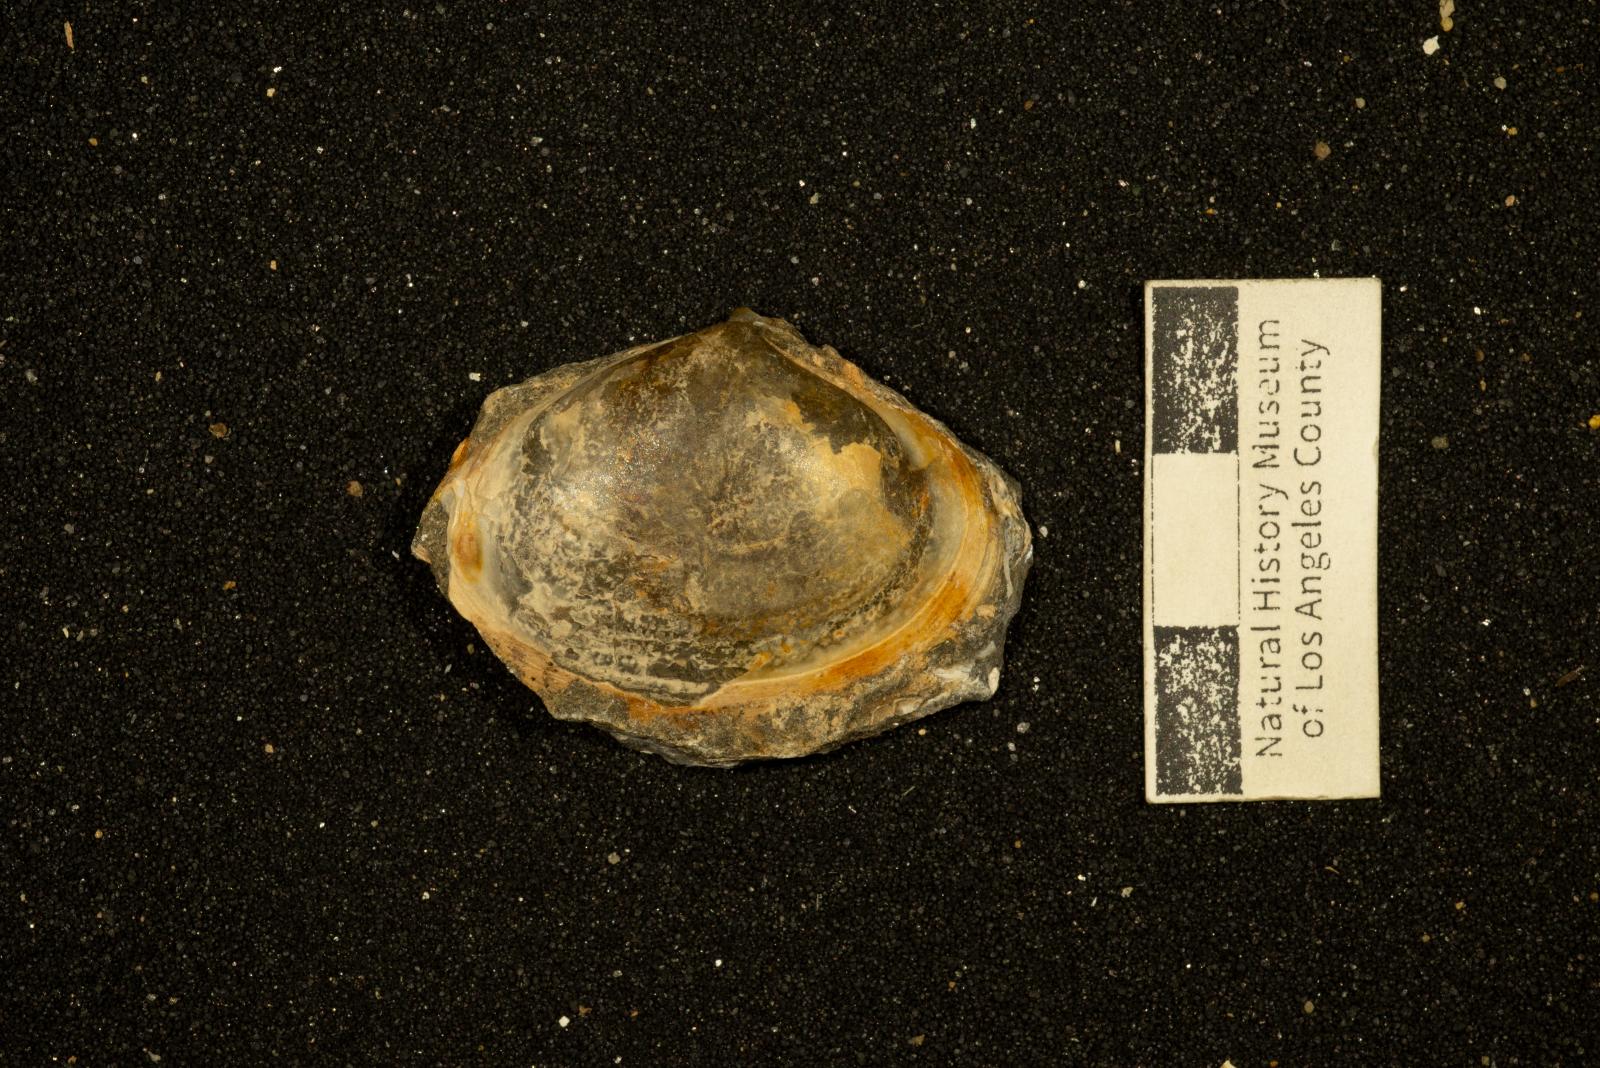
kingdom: Animalia
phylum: Mollusca
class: Bivalvia
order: Venerida
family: Mactridae
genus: Willimactra
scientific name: Willimactra Lutraria truncata
